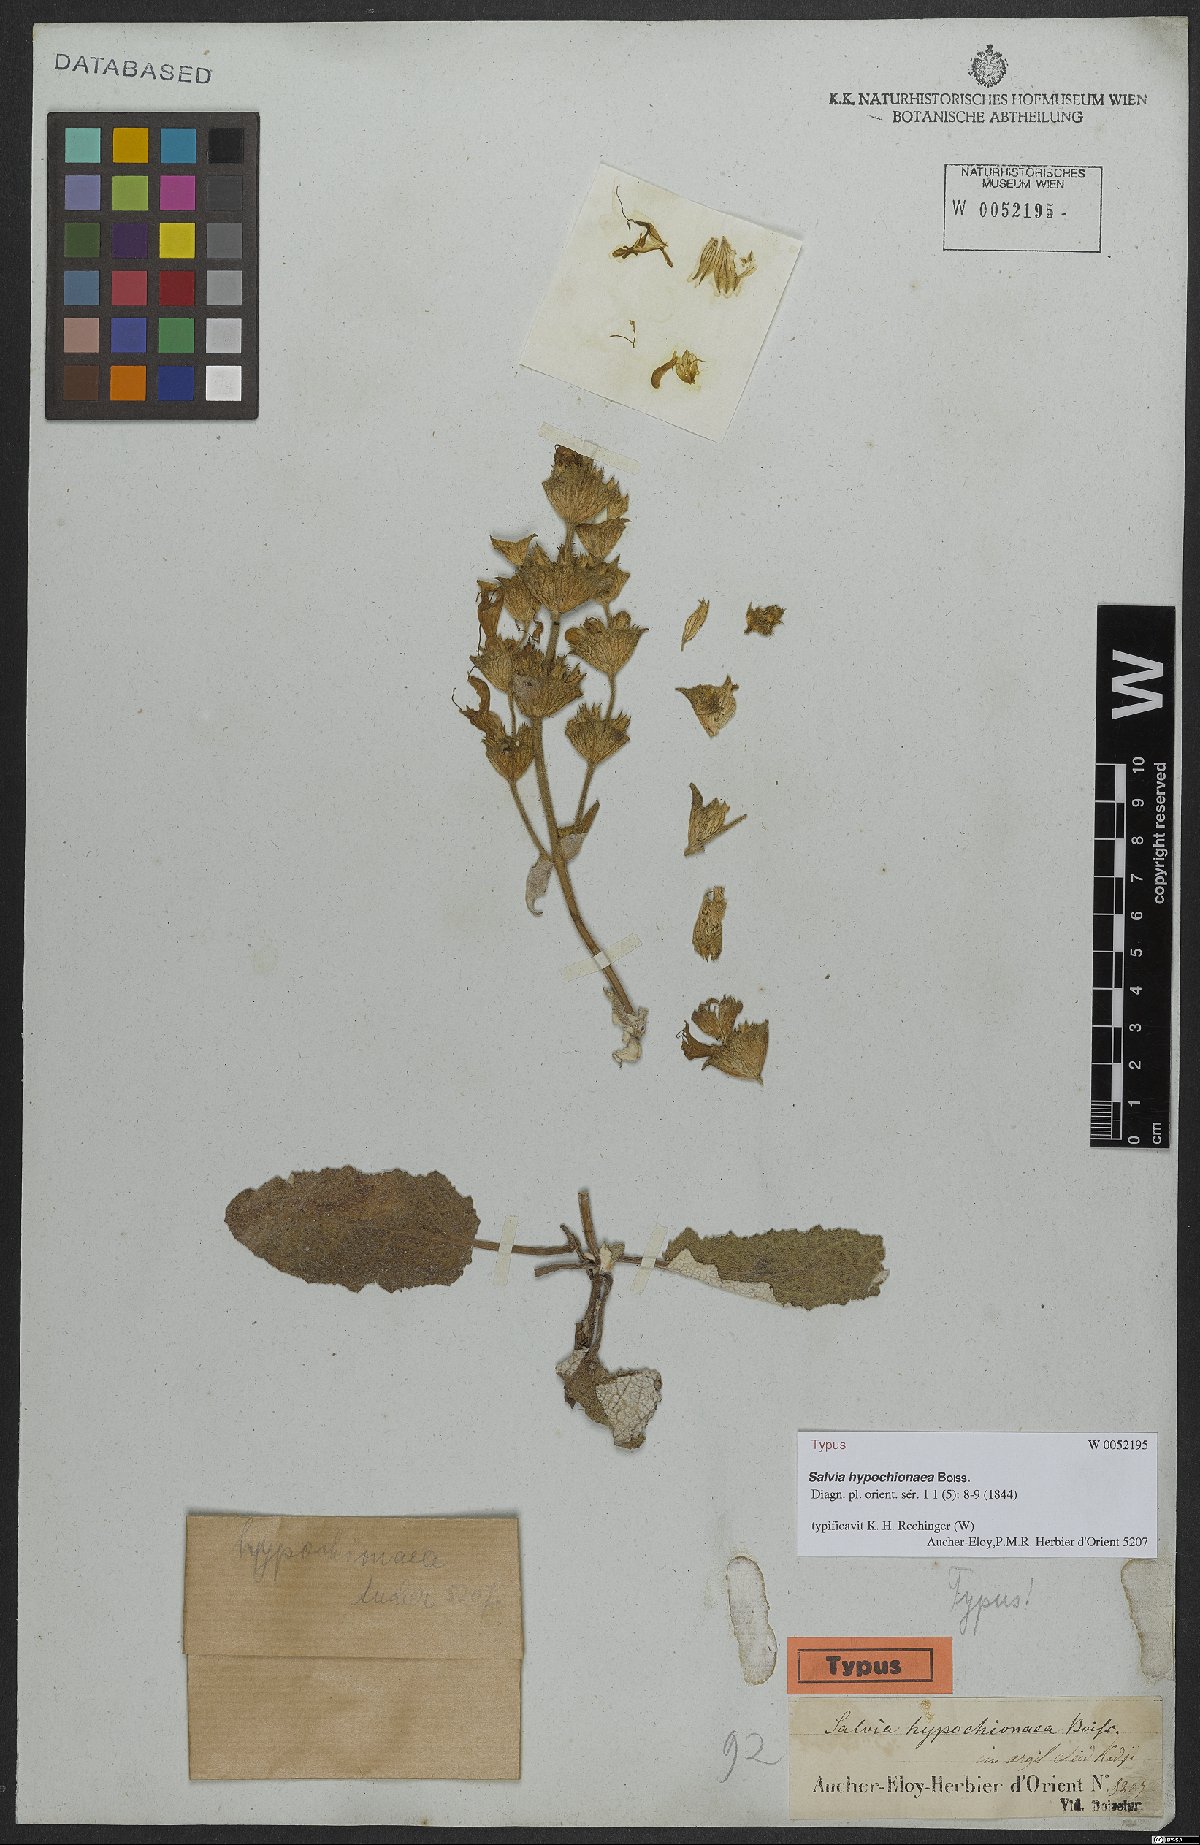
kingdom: Plantae
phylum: Tracheophyta
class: Magnoliopsida
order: Lamiales
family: Lamiaceae
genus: Salvia
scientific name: Salvia hypochionaea
